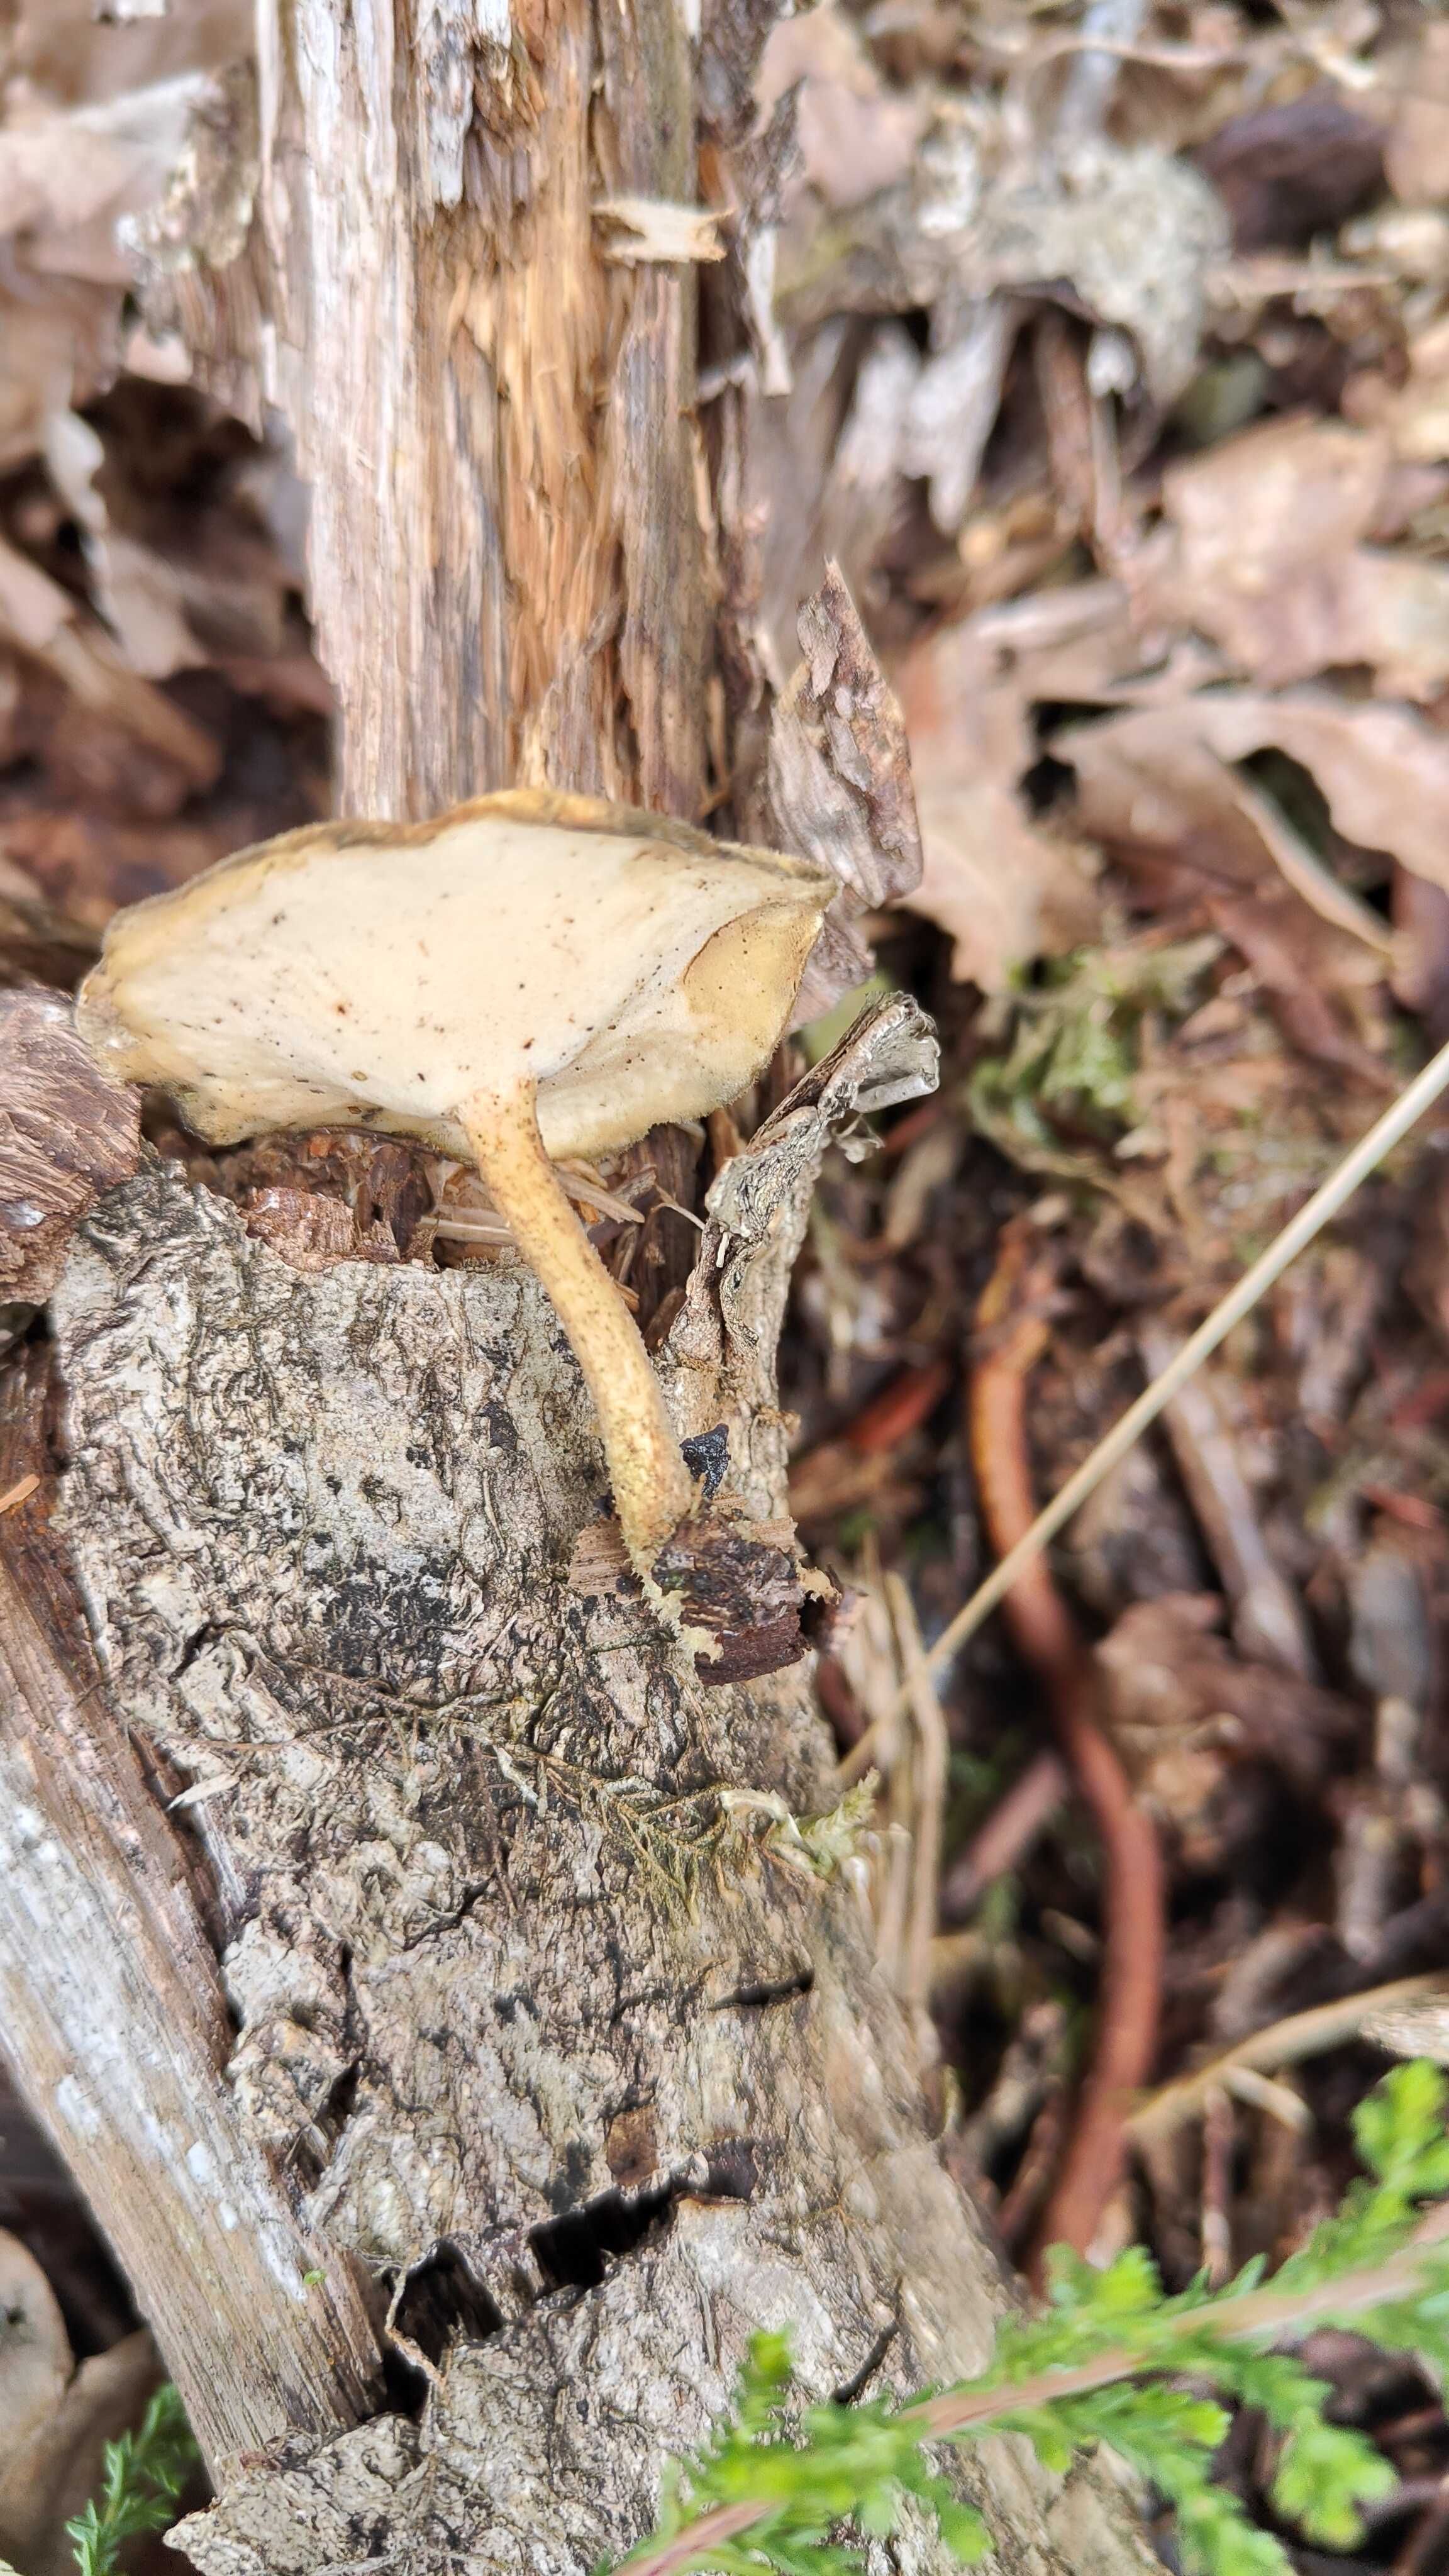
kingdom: Fungi
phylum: Basidiomycota
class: Agaricomycetes
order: Polyporales
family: Polyporaceae
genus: Lentinus
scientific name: Lentinus substrictus
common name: forårs-stilkporesvamp
